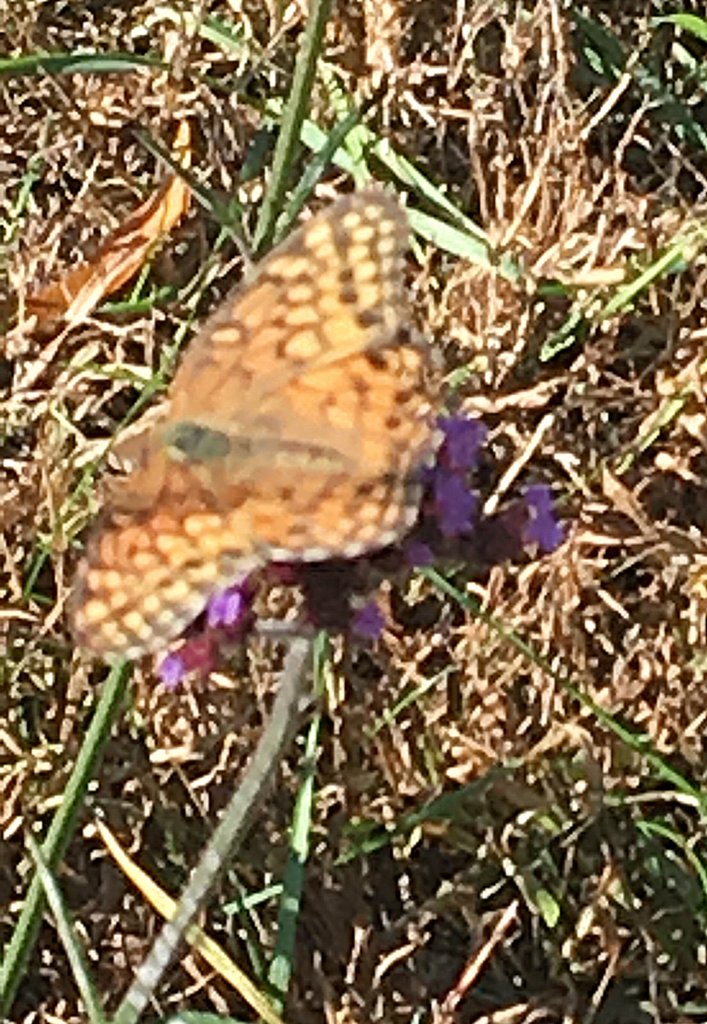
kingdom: Animalia
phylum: Arthropoda
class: Insecta
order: Lepidoptera
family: Nymphalidae
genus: Euptoieta
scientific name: Euptoieta claudia
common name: Variegated Fritillary
